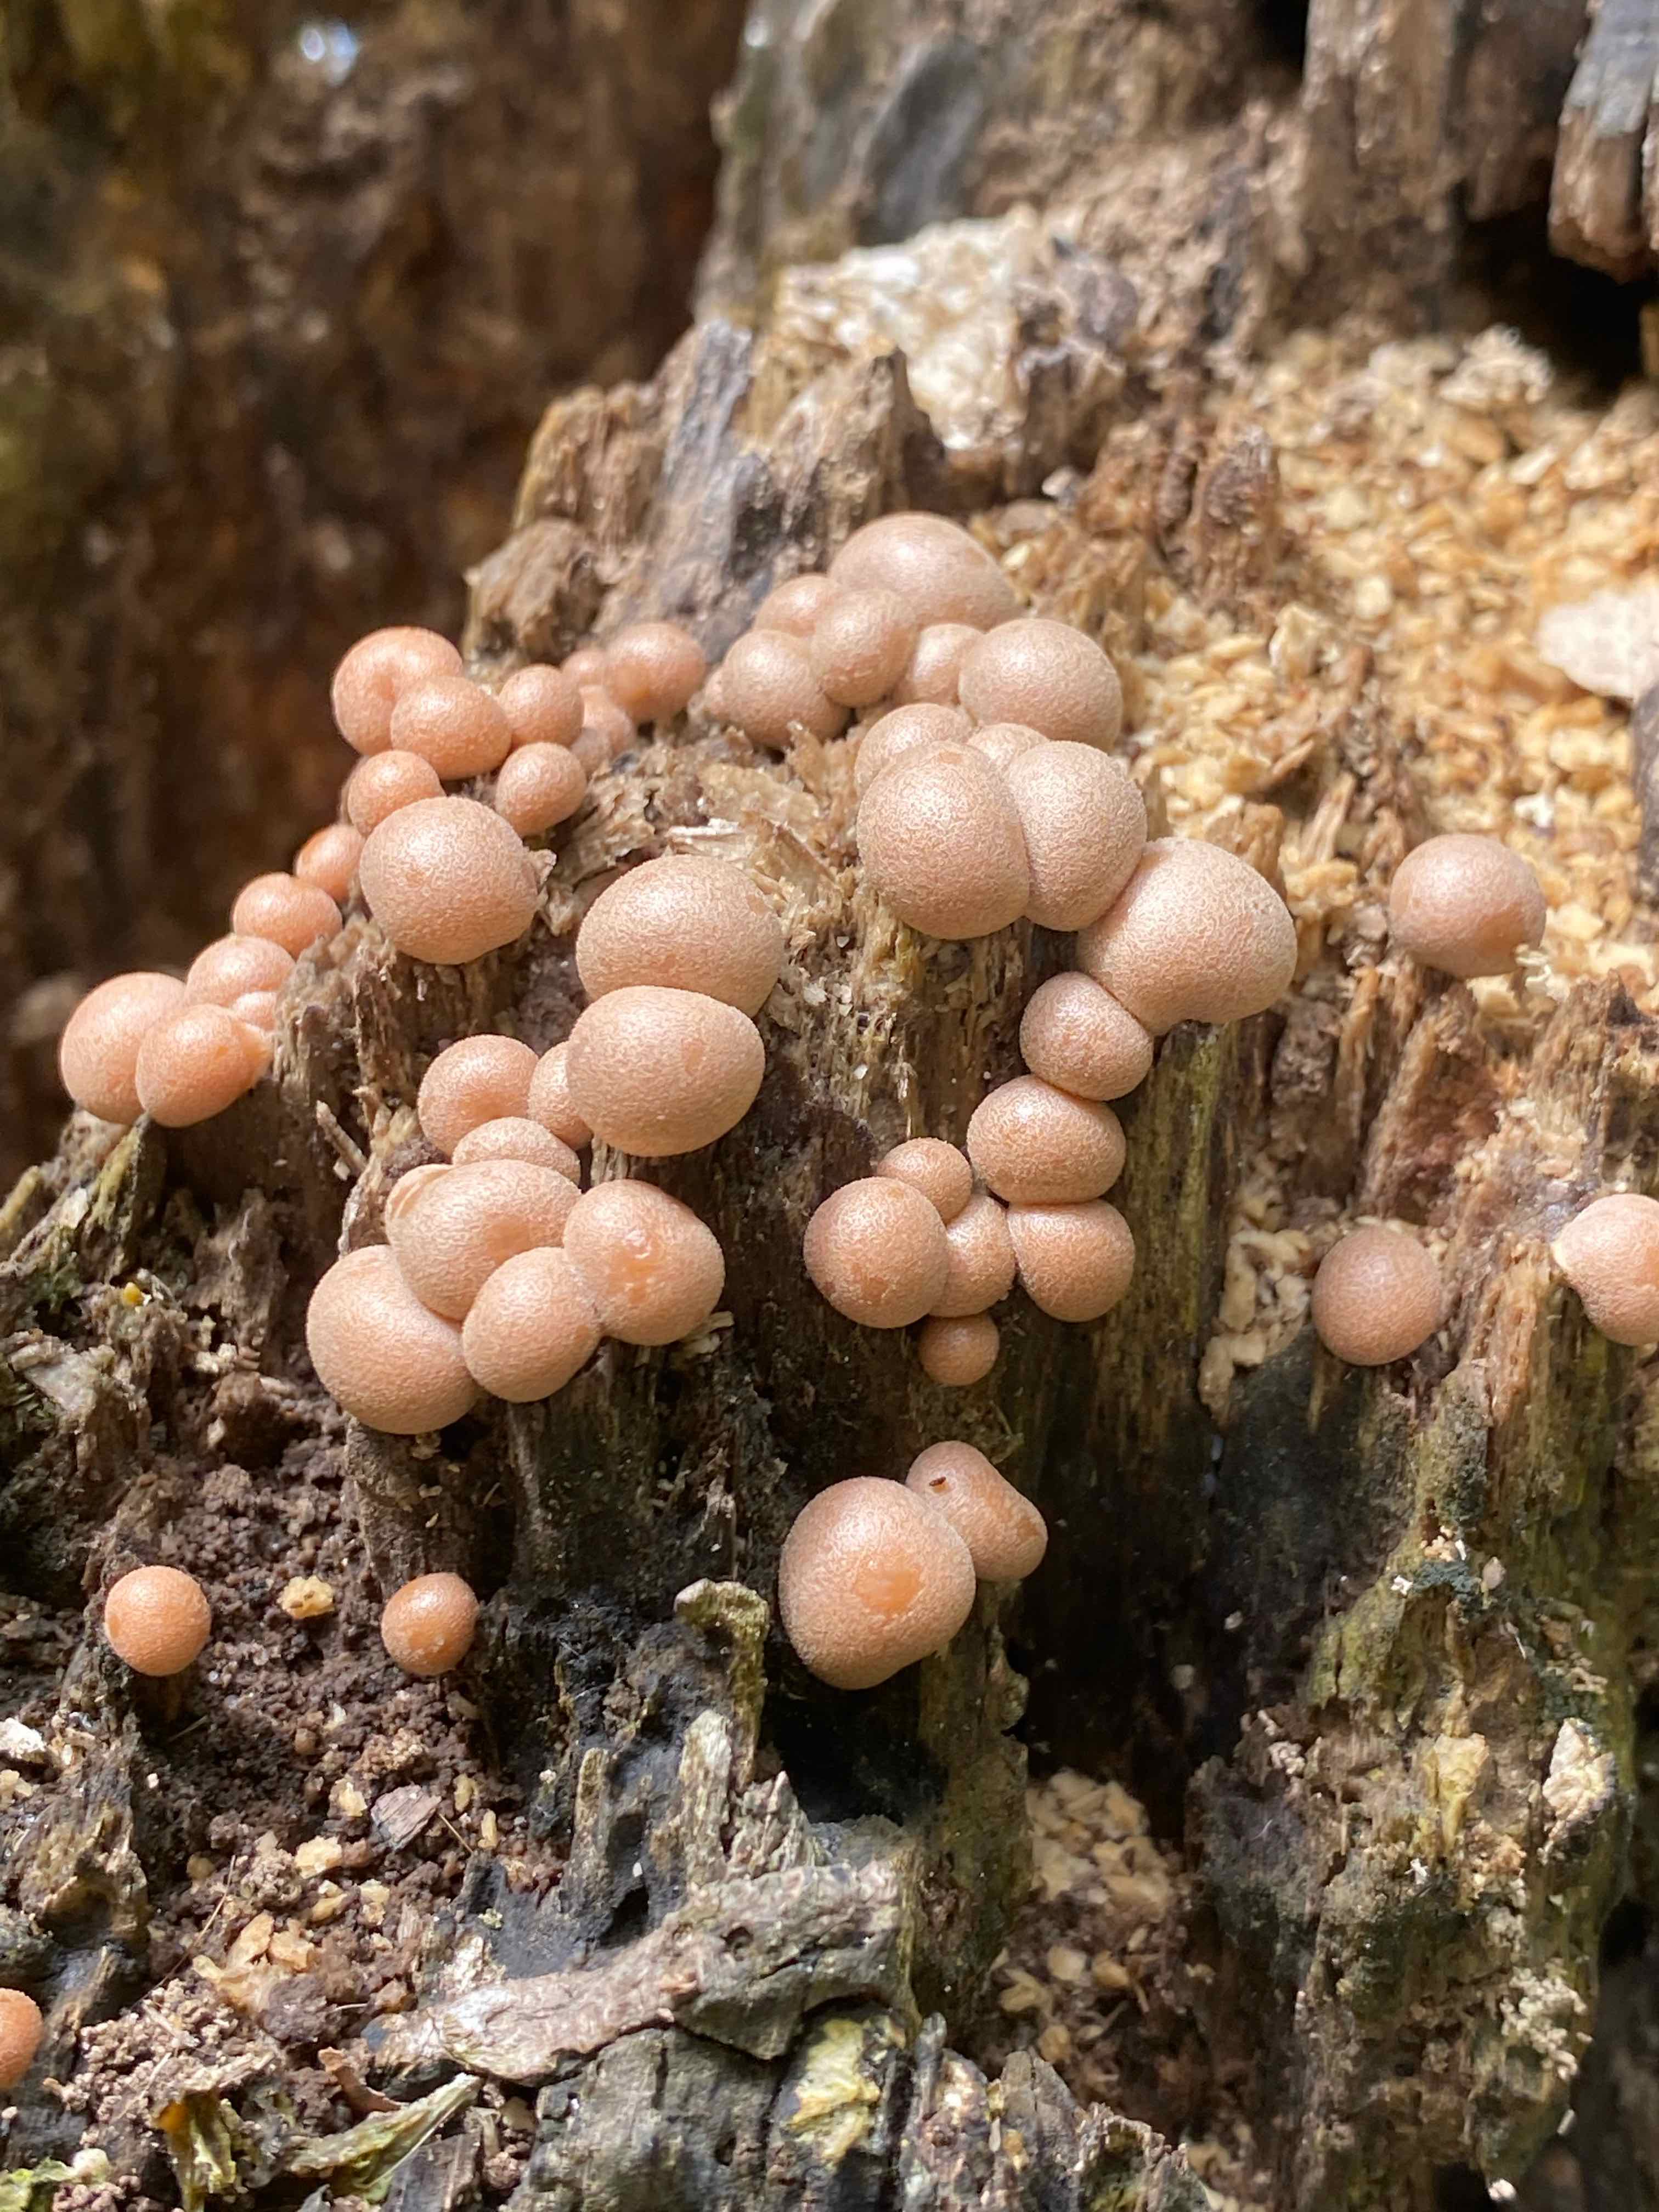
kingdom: Protozoa
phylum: Mycetozoa
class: Myxomycetes
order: Cribrariales
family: Tubiferaceae
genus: Lycogala
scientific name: Lycogala epidendrum
